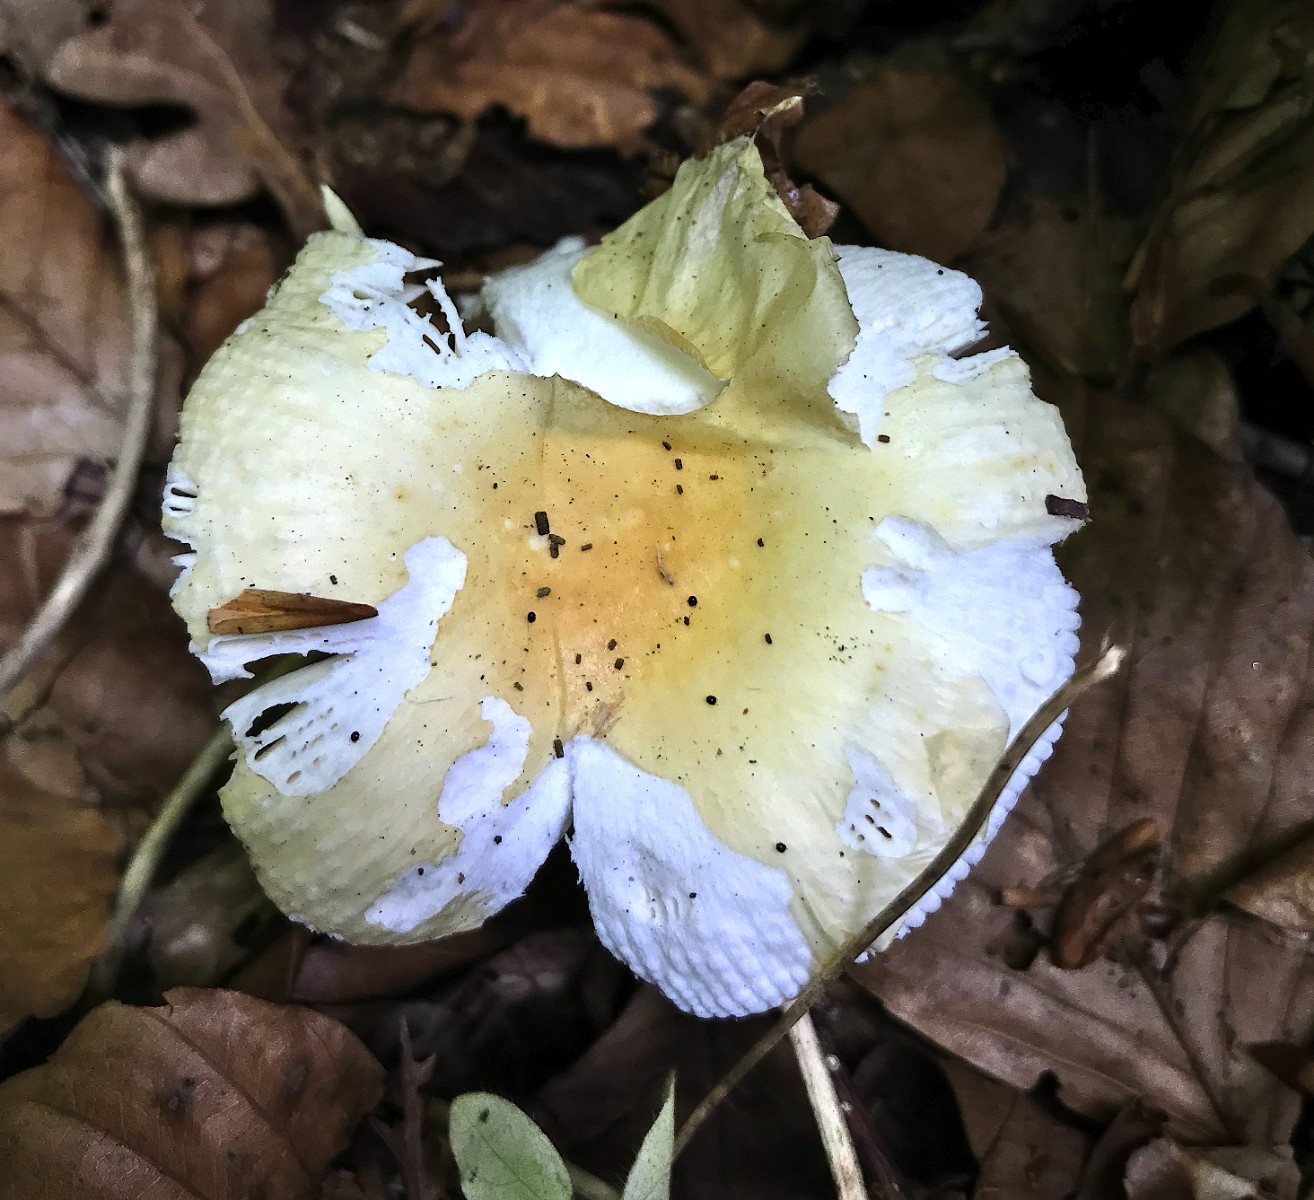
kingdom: Fungi
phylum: Basidiomycota
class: Agaricomycetes
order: Russulales
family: Russulaceae
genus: Russula
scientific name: Russula solaris
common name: sol-skørhat
